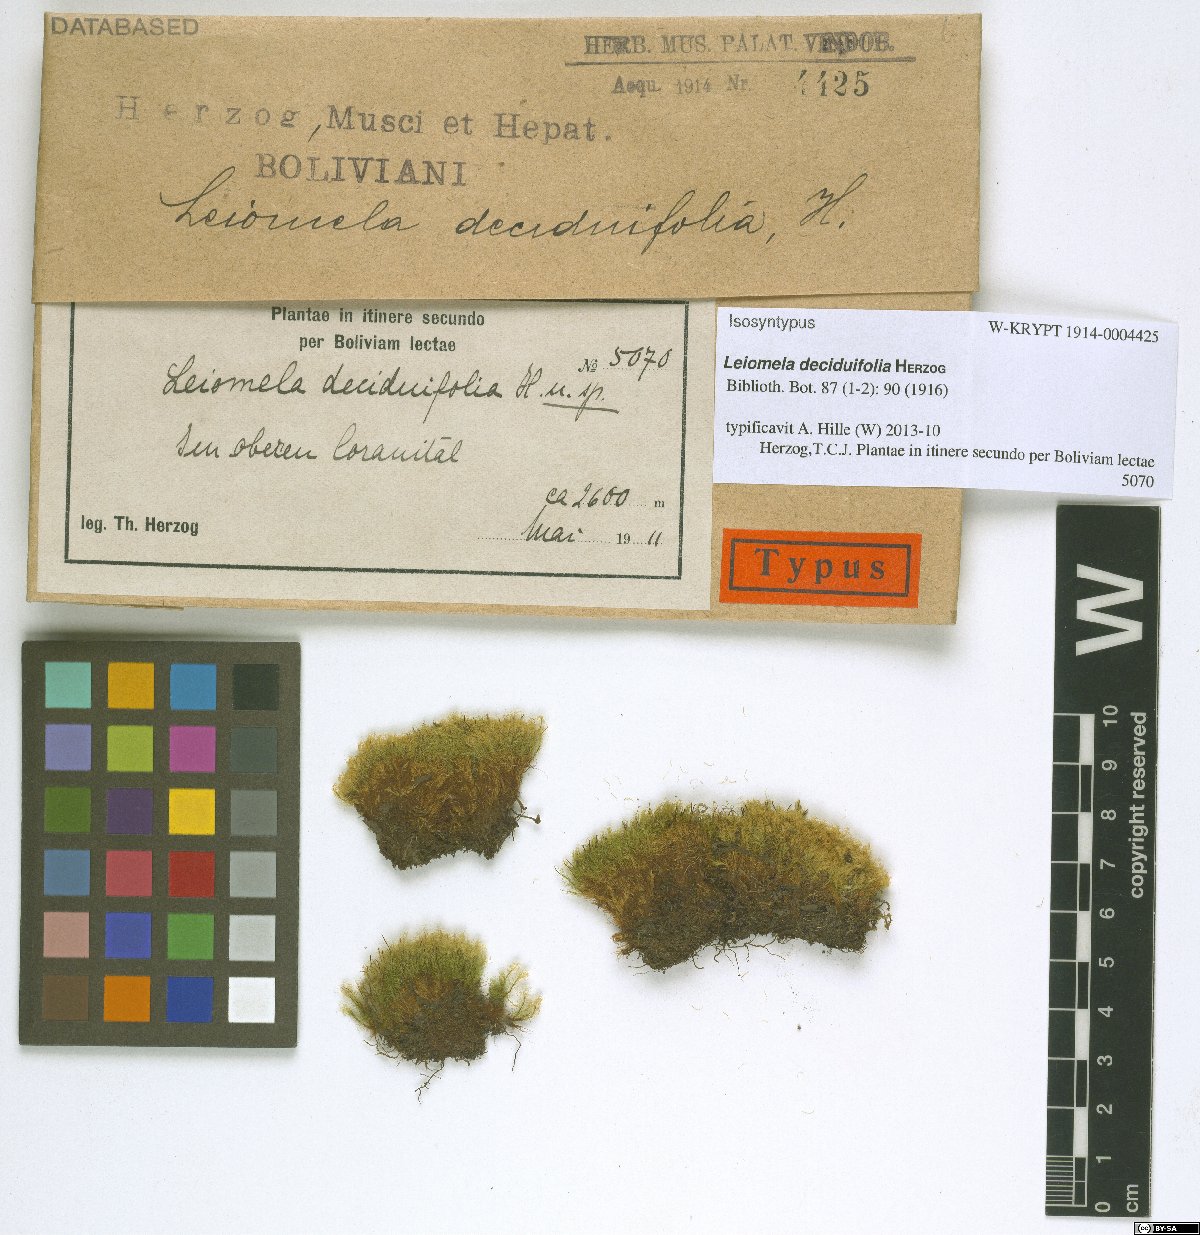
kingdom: Plantae
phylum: Bryophyta
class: Bryopsida
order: Bartramiales
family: Bartramiaceae
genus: Leiomela
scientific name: Leiomela deciduifolia
